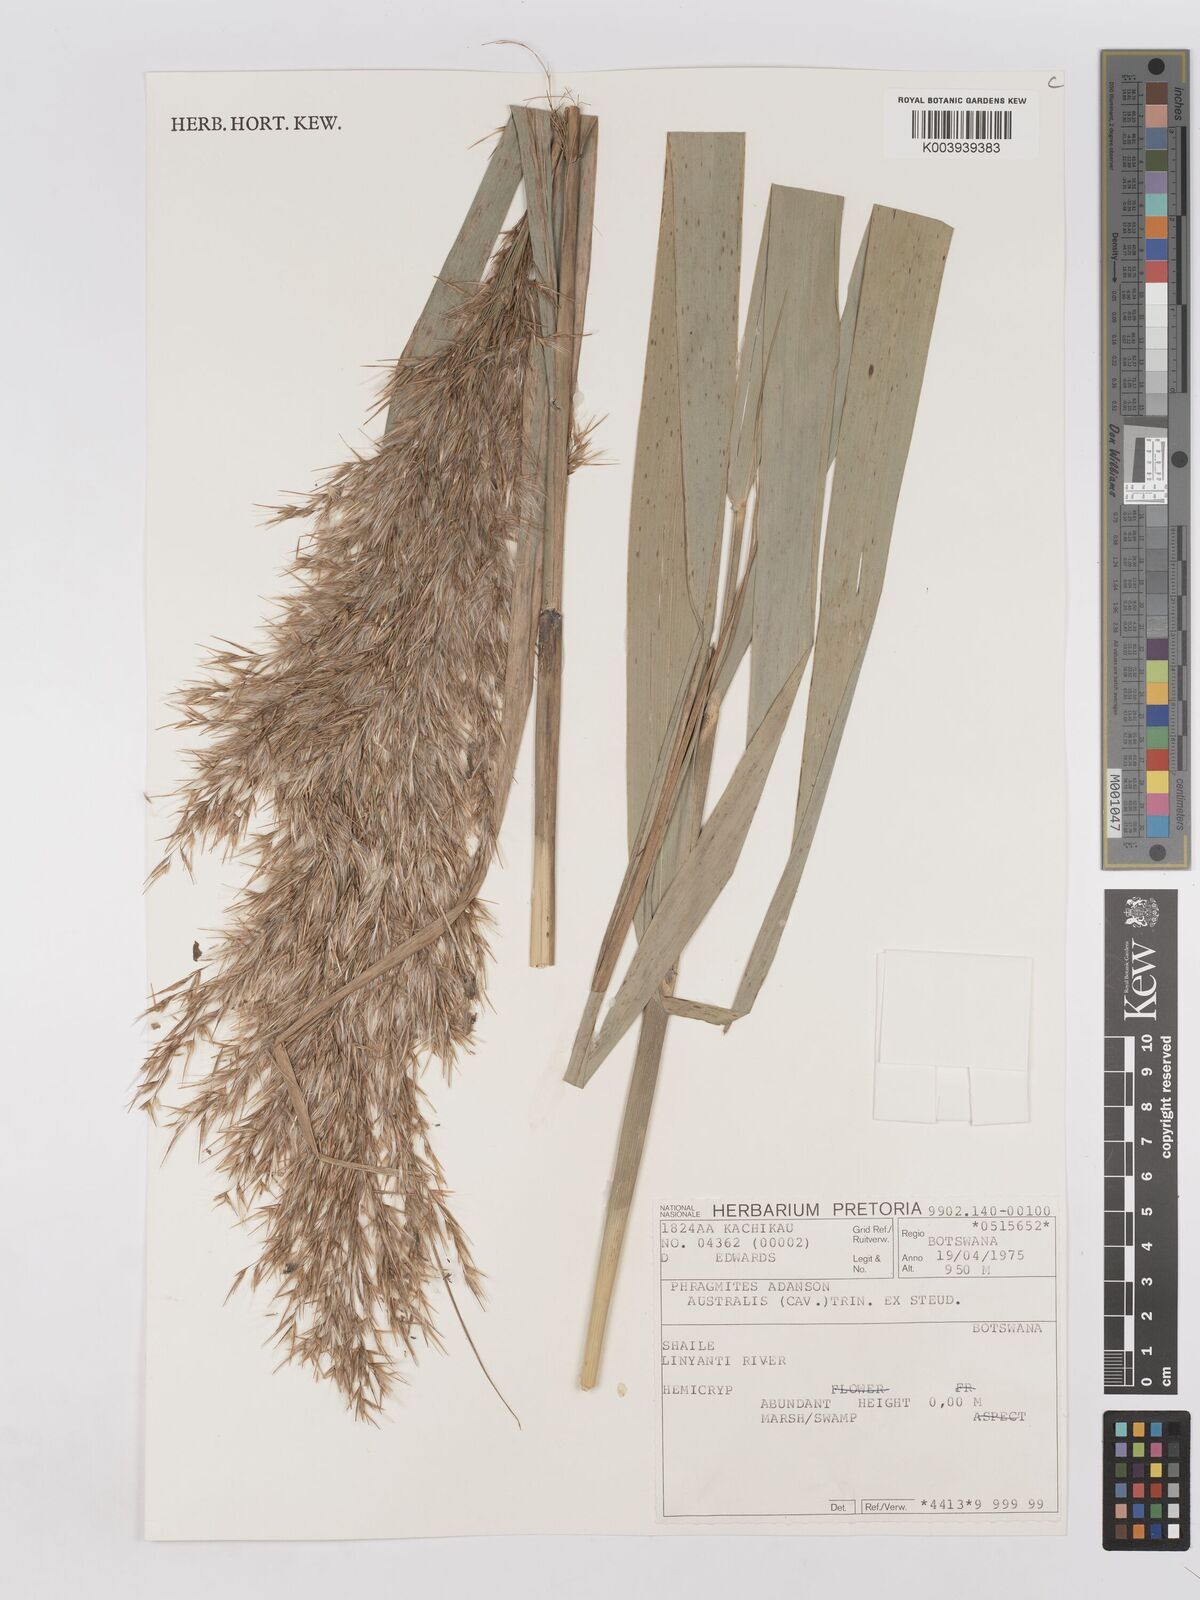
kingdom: Plantae
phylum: Tracheophyta
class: Liliopsida
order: Poales
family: Poaceae
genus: Phragmites
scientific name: Phragmites australis
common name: Common reed
